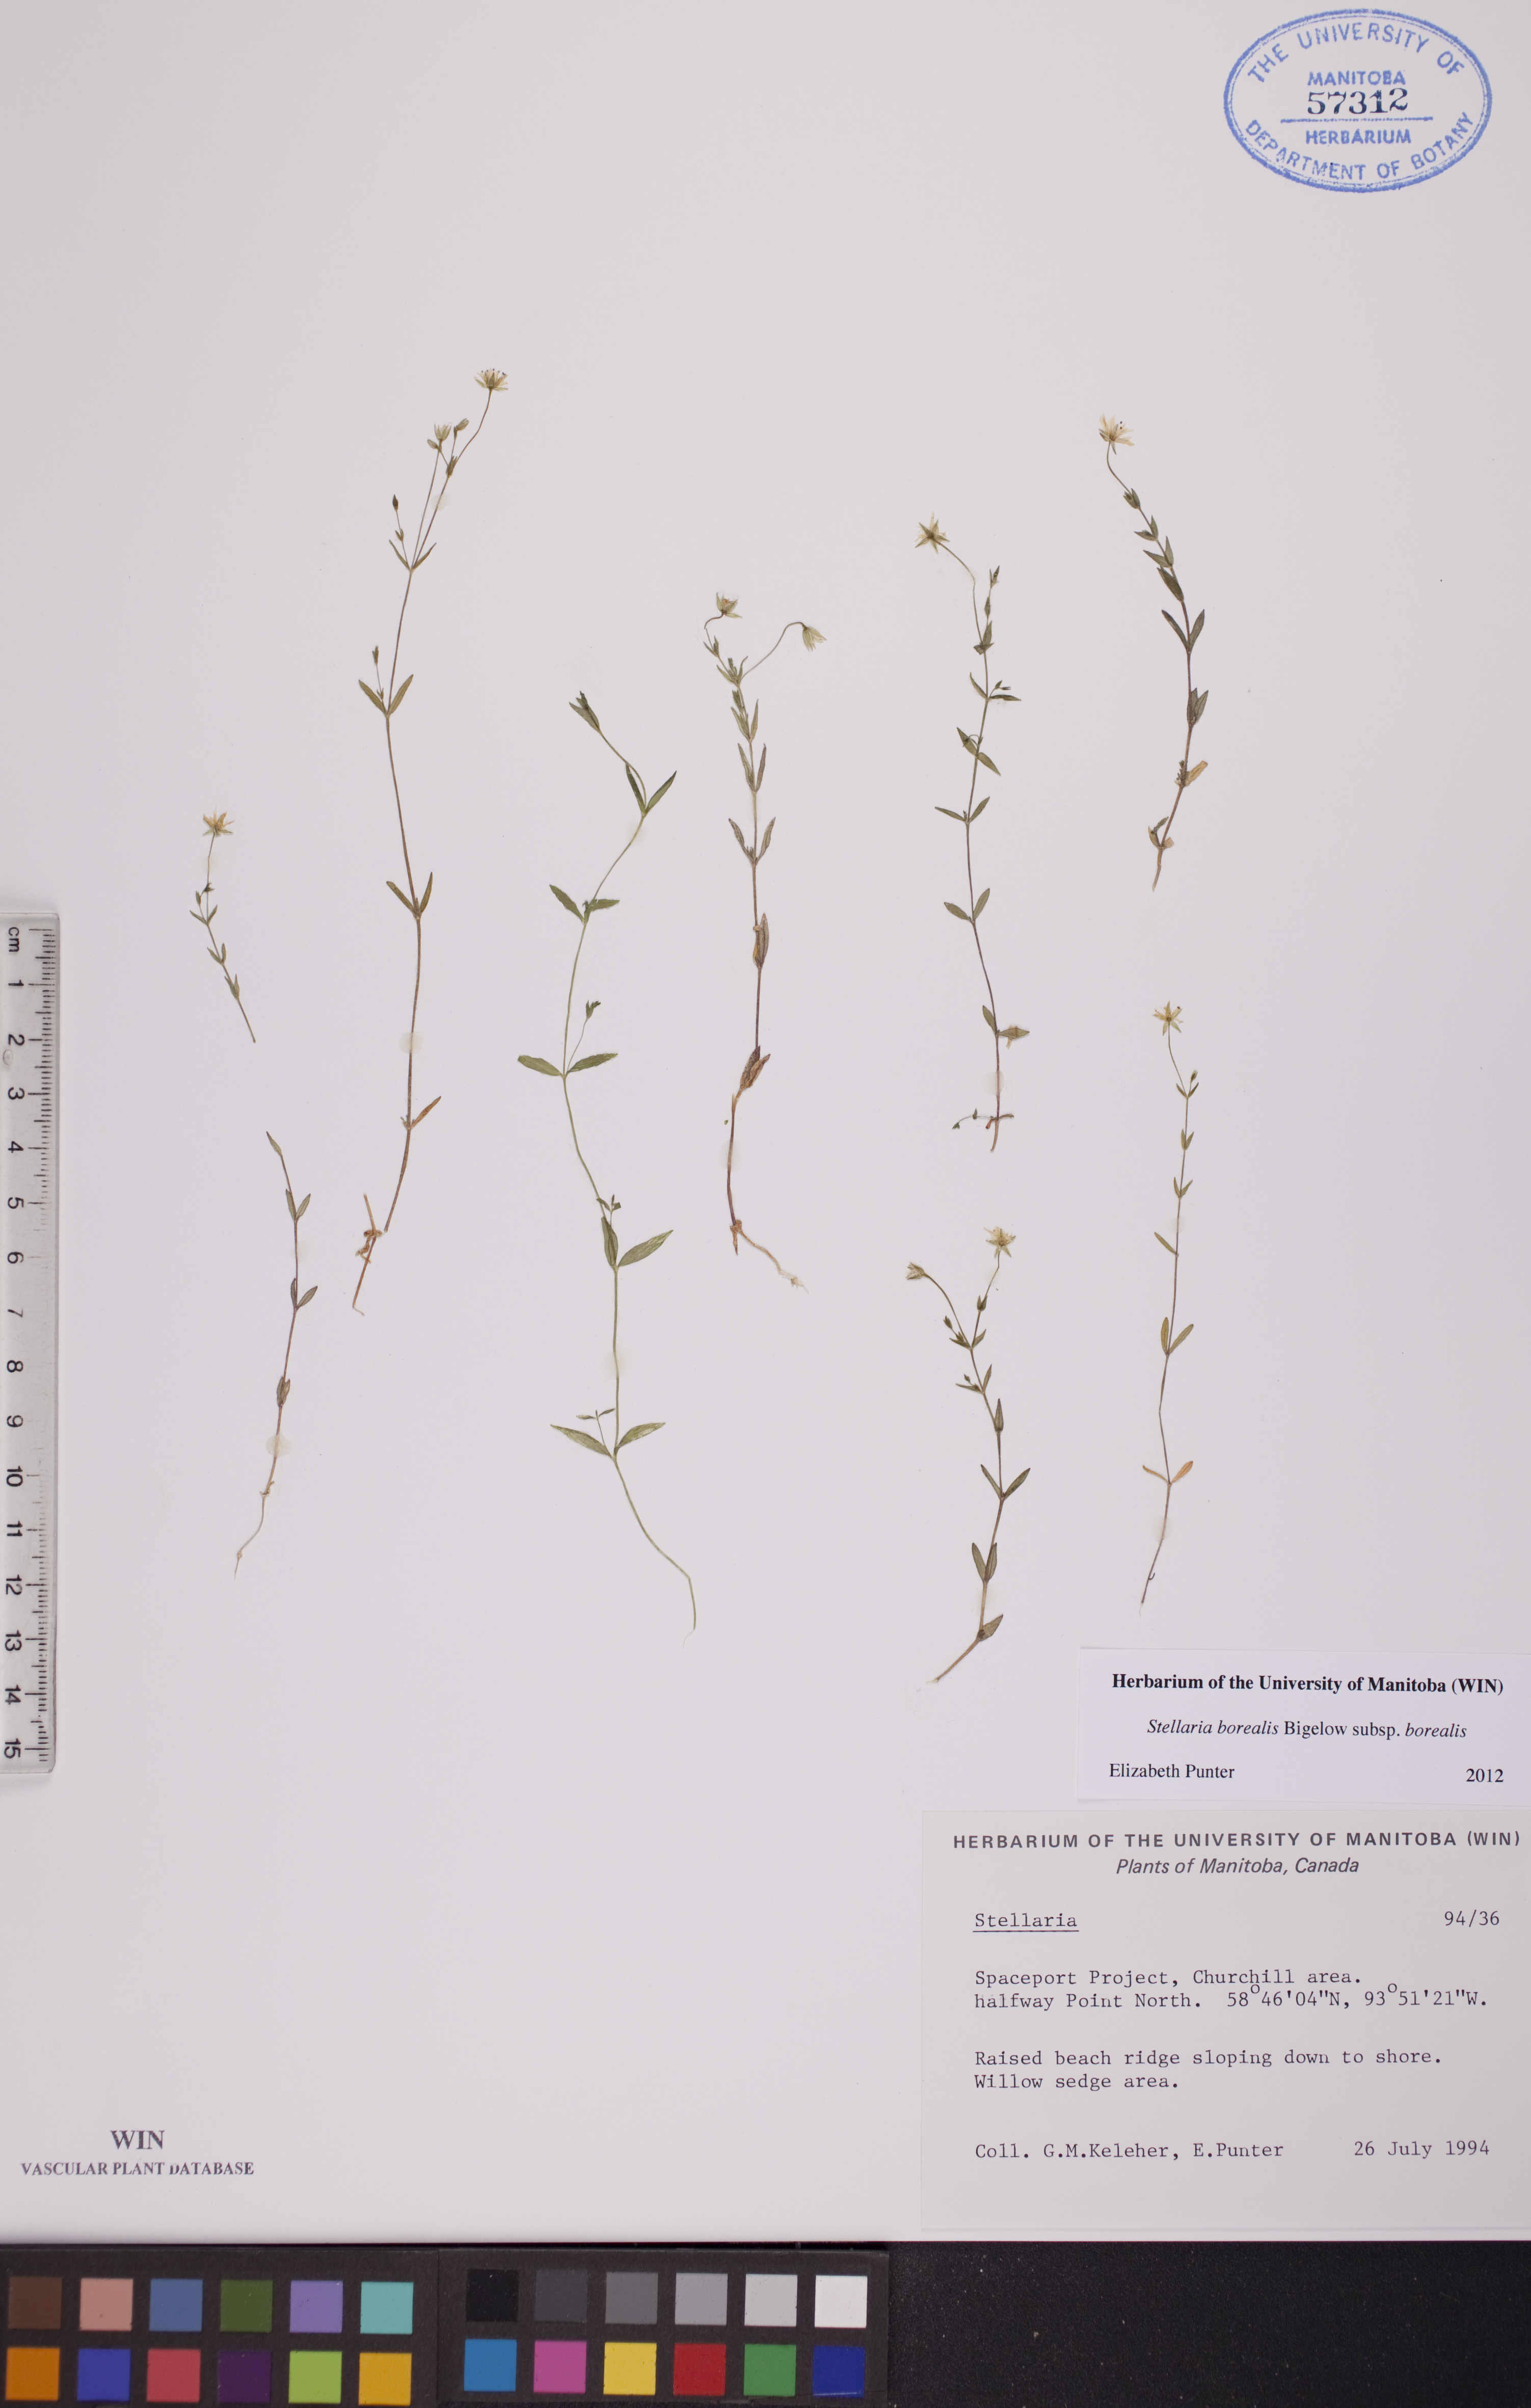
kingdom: Plantae
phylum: Tracheophyta
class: Magnoliopsida
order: Caryophyllales
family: Caryophyllaceae
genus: Stellaria
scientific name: Stellaria borealis
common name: Boreal starwort
